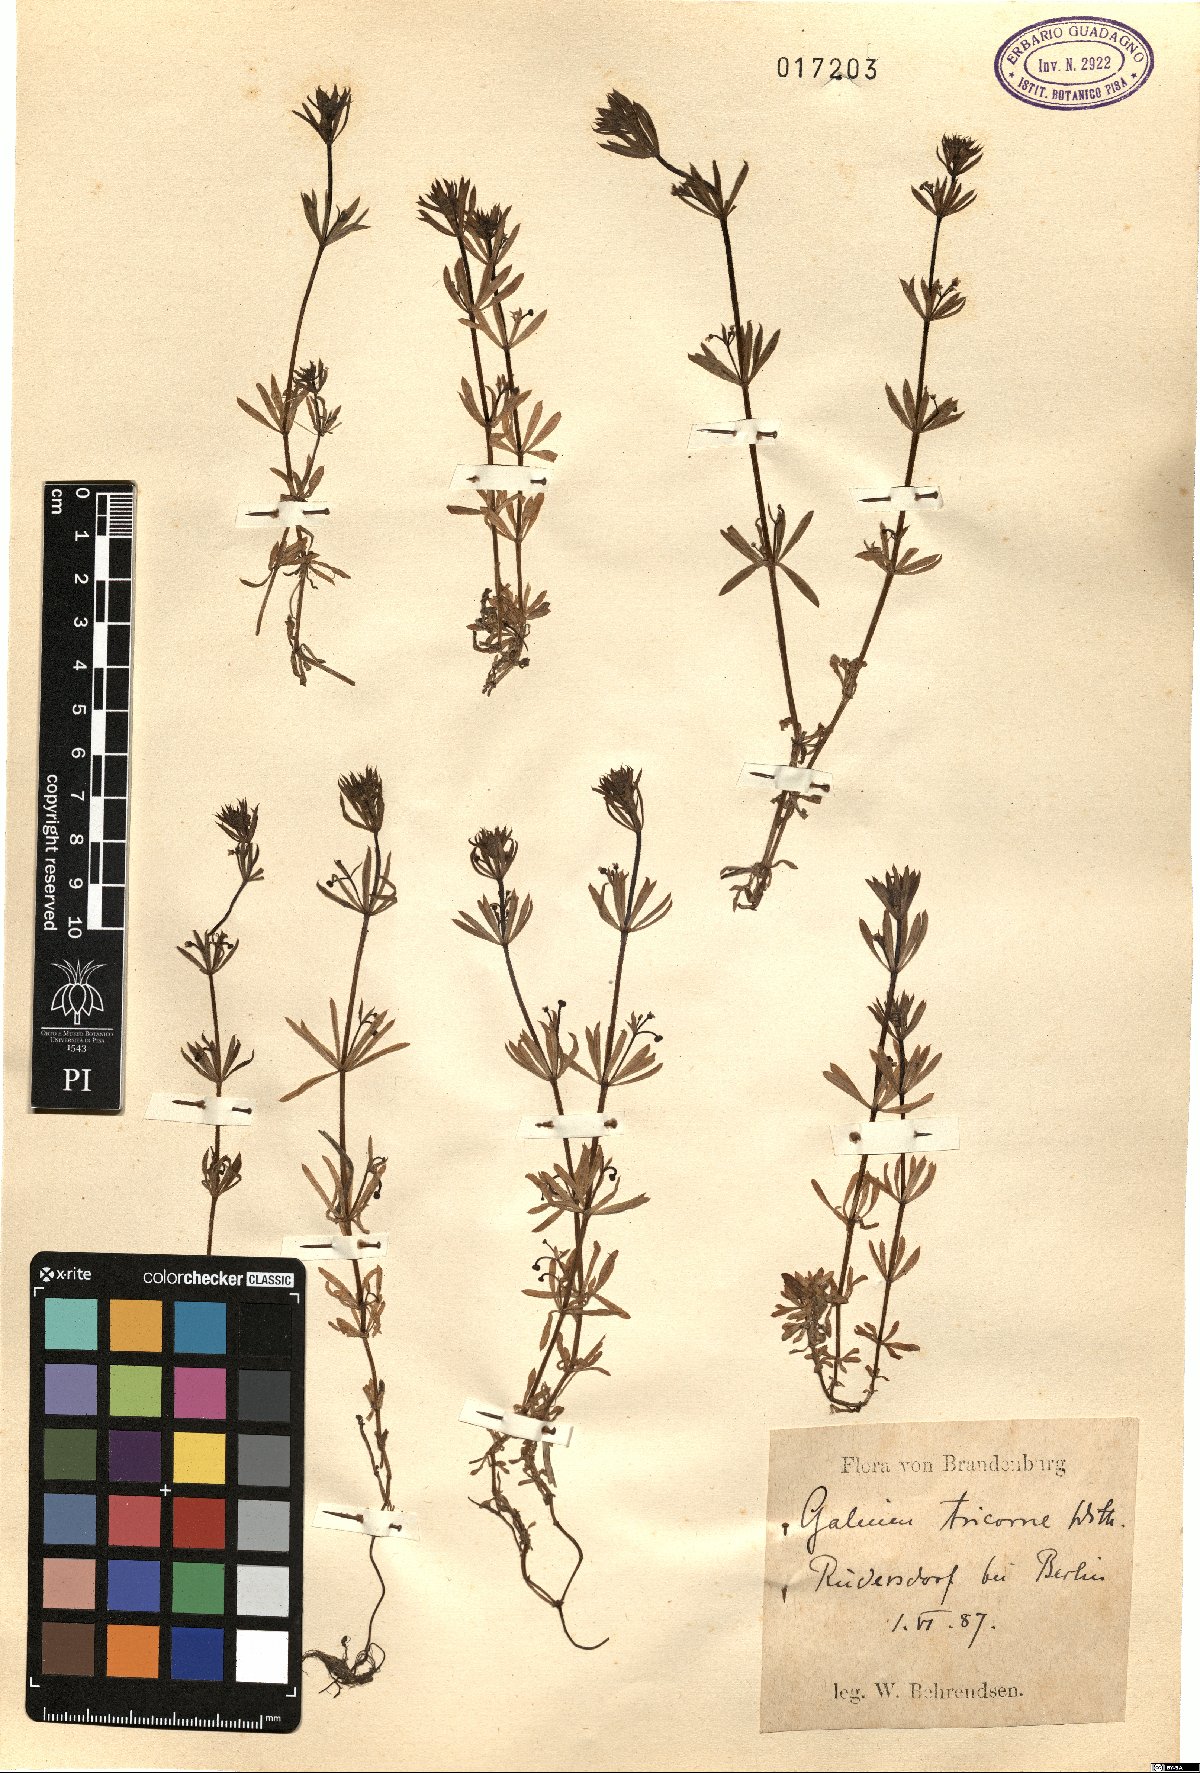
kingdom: Plantae
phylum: Tracheophyta
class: Magnoliopsida
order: Gentianales
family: Rubiaceae
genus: Galium
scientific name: Galium verrucosum
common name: Warty bedstraw
